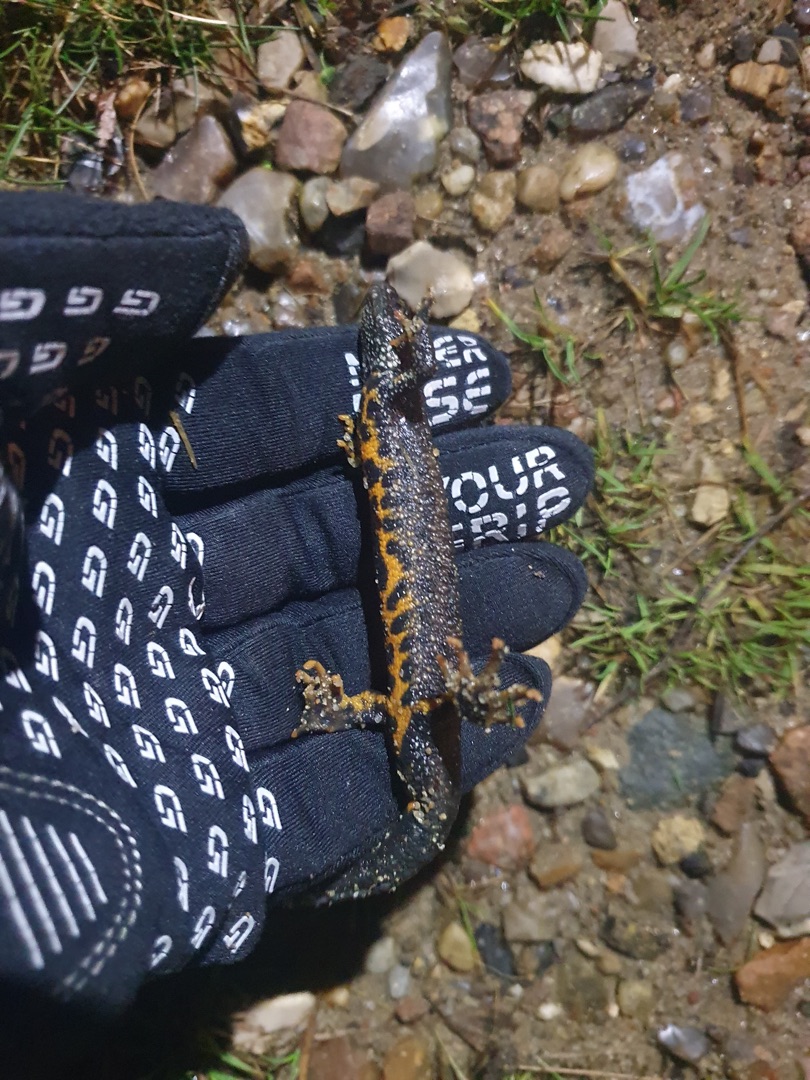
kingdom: Animalia
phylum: Chordata
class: Amphibia
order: Caudata
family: Salamandridae
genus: Triturus
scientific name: Triturus cristatus
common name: Stor vandsalamander
